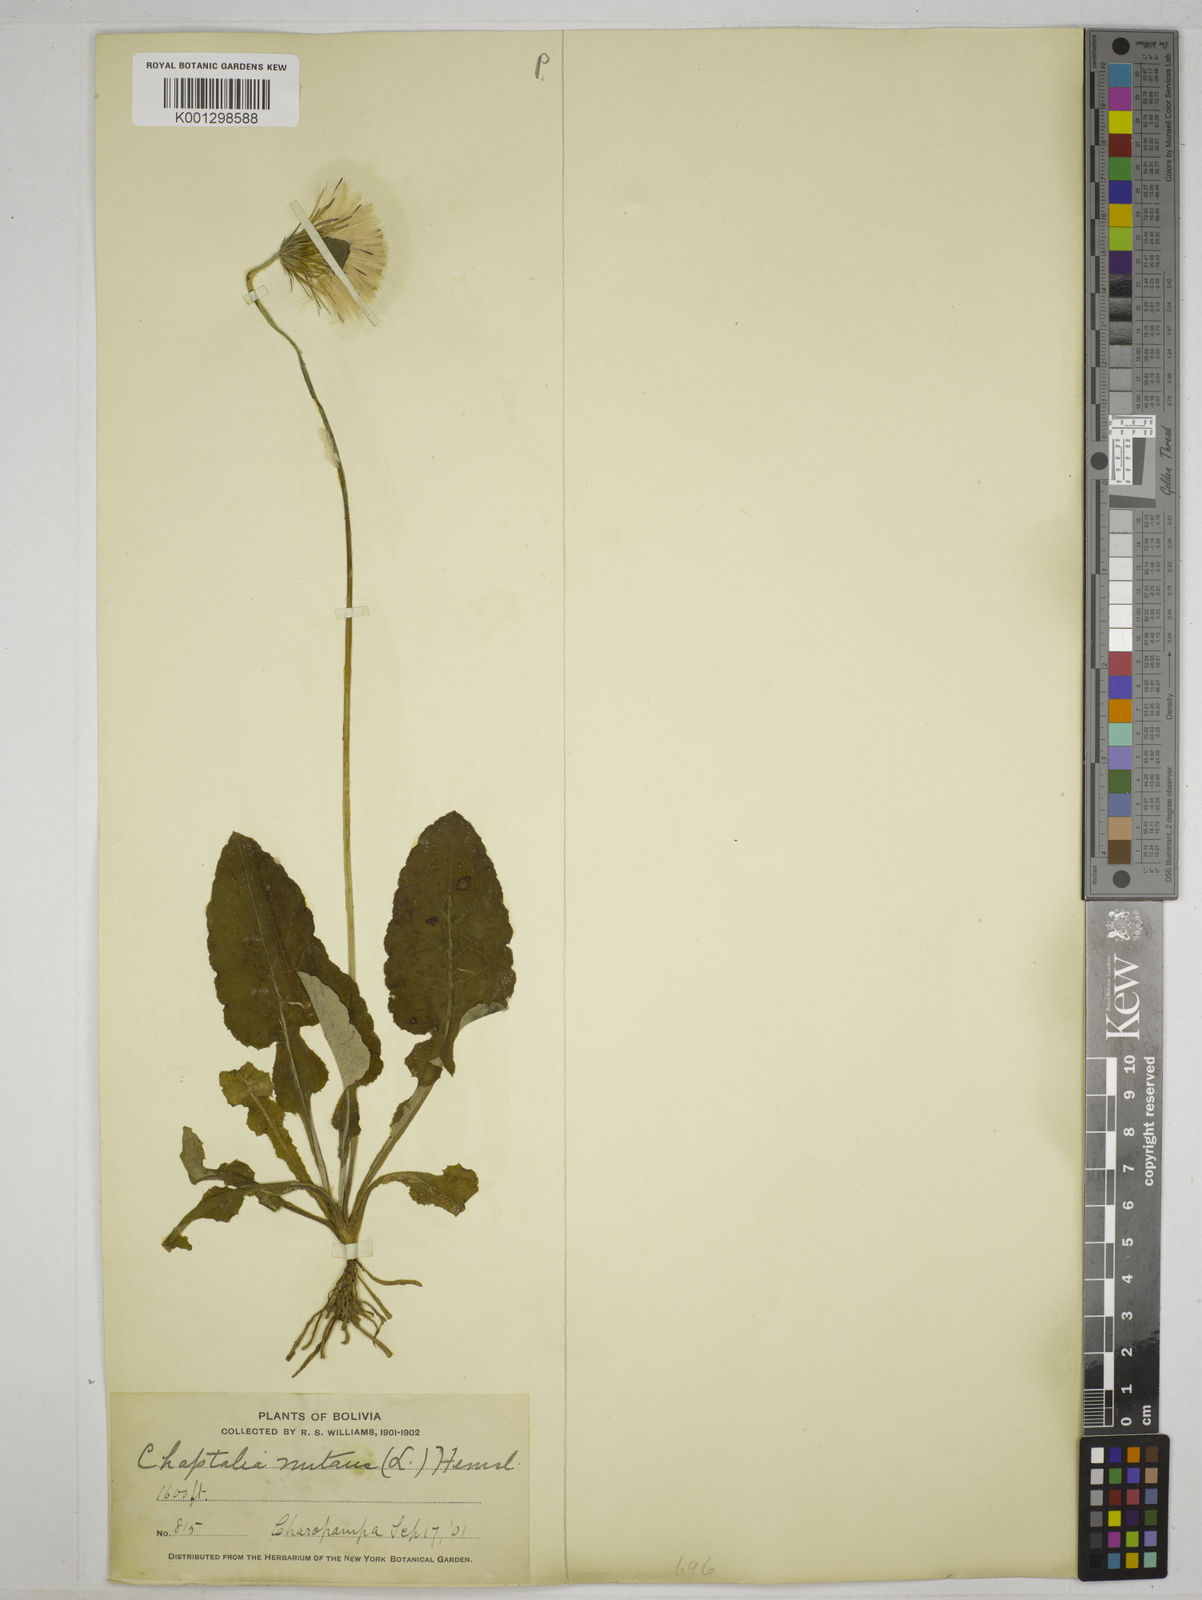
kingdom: Plantae
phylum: Tracheophyta
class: Magnoliopsida
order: Asterales
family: Asteraceae
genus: Chaptalia
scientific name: Chaptalia nutans
